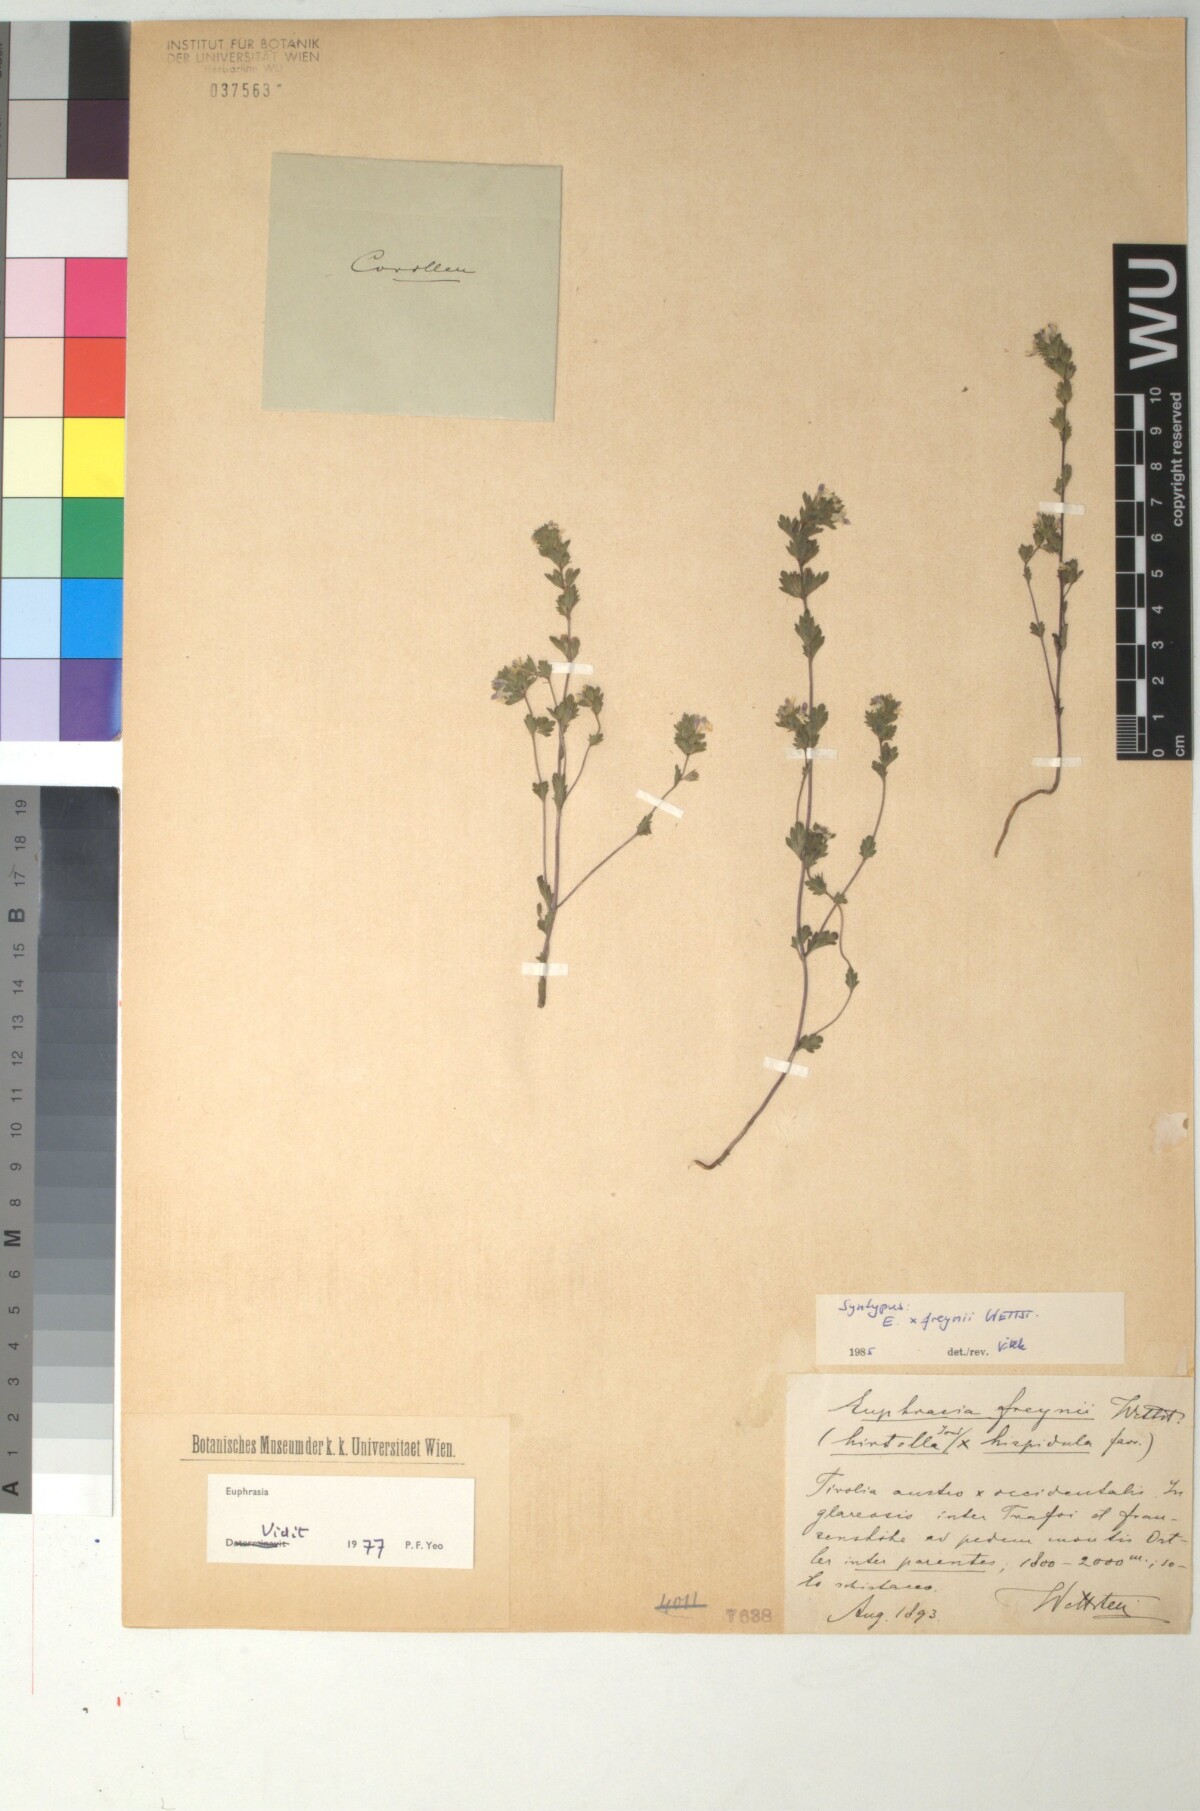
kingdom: Plantae
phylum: Tracheophyta
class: Magnoliopsida
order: Lamiales
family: Scrophulariaceae
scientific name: Scrophulariaceae
